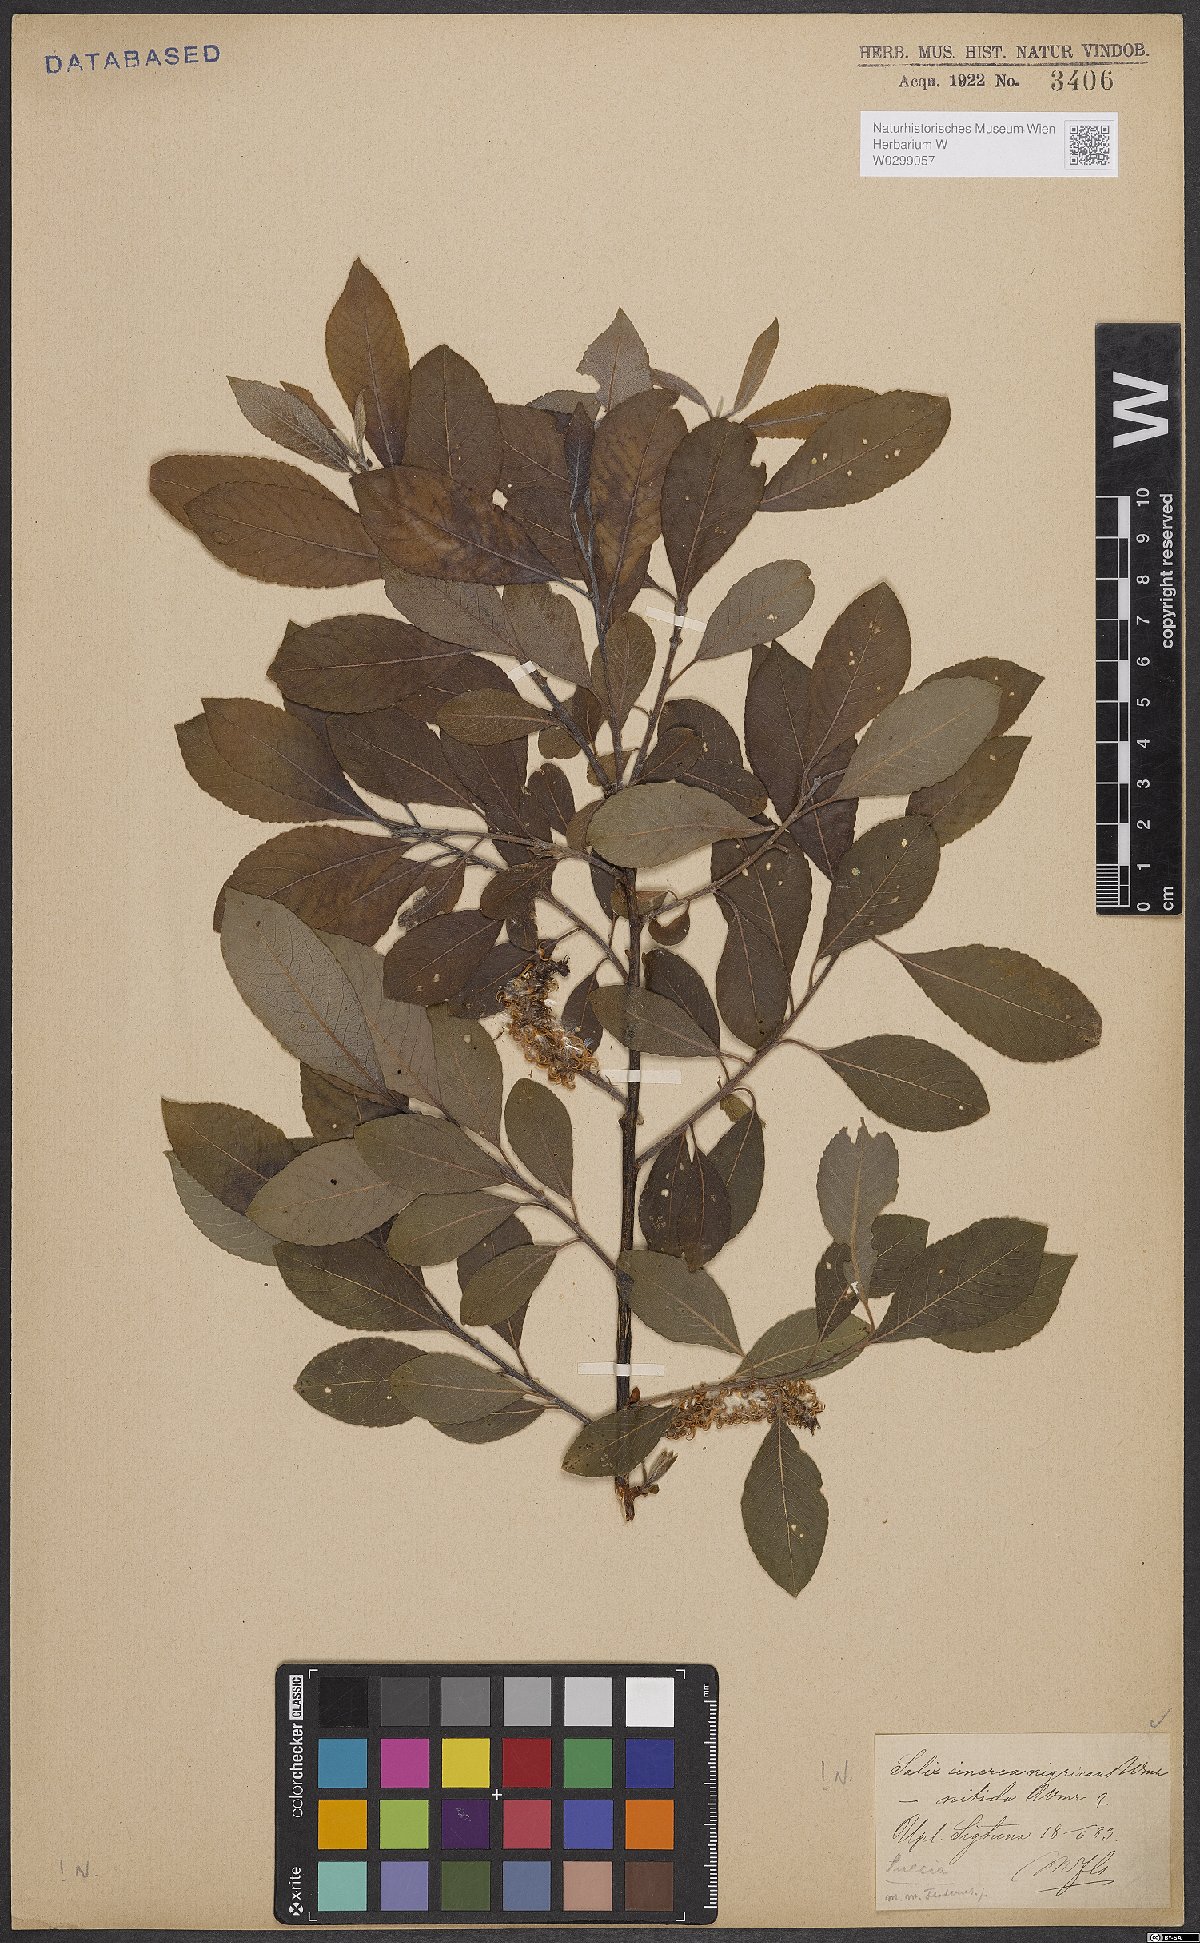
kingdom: Plantae
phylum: Tracheophyta
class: Magnoliopsida
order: Malpighiales
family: Salicaceae
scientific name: Salicaceae
